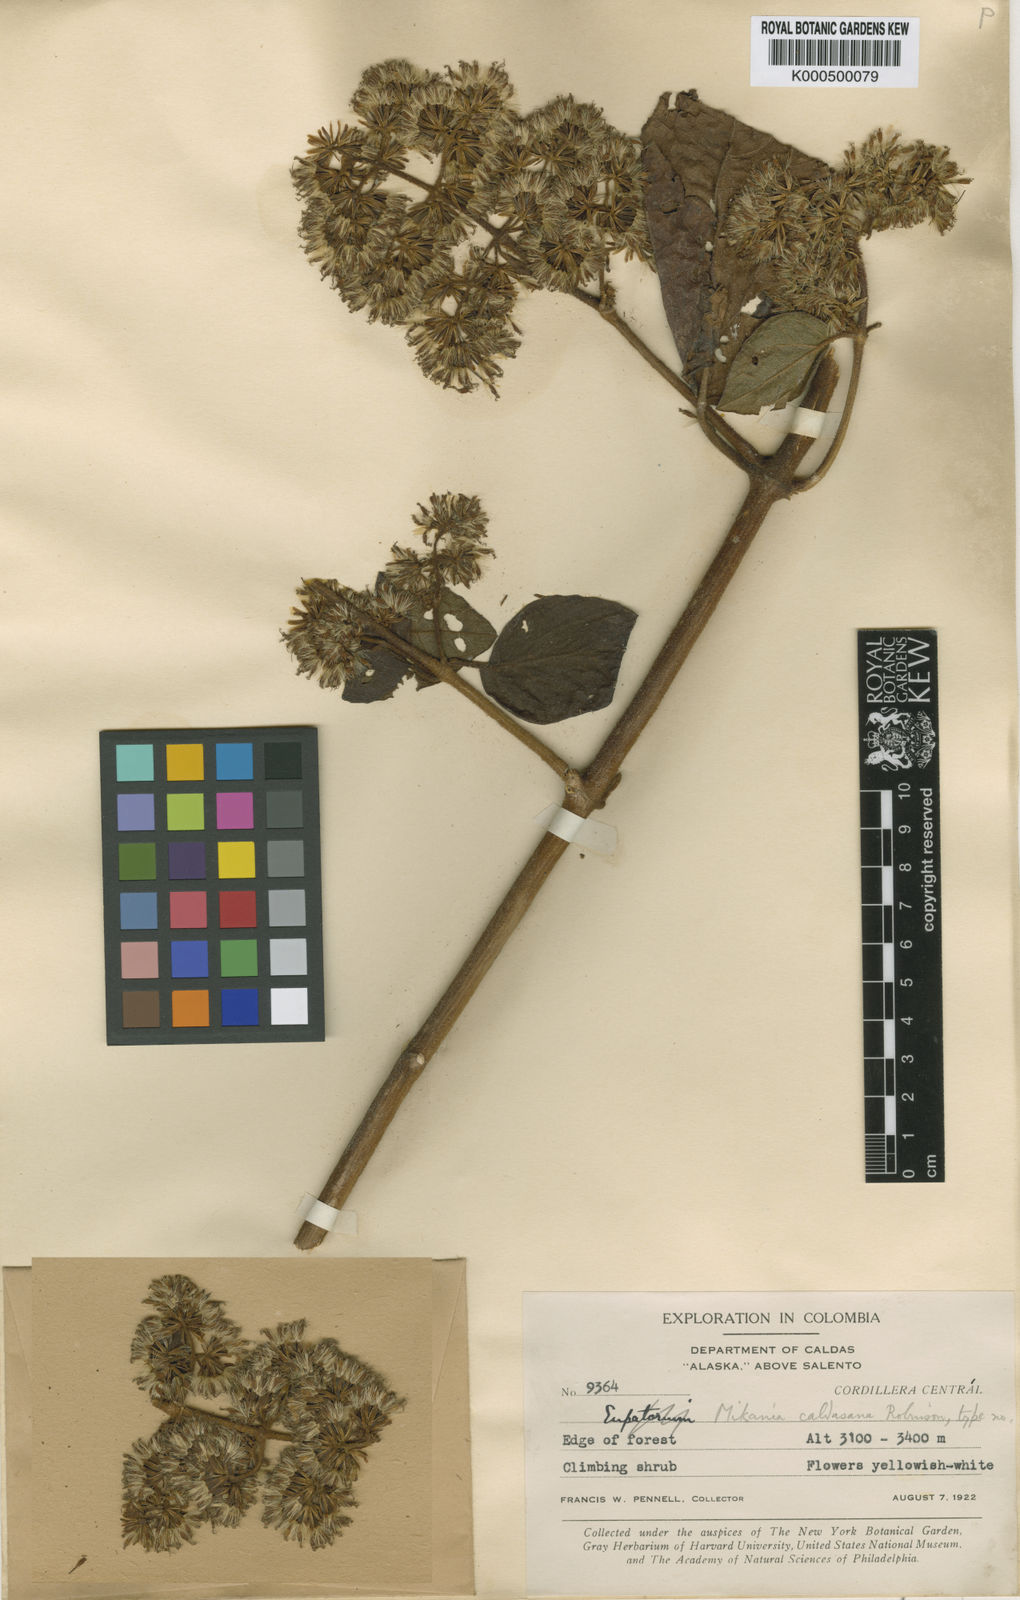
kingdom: Plantae
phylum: Tracheophyta
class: Magnoliopsida
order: Asterales
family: Asteraceae
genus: Mikania
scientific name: Mikania caldasana
